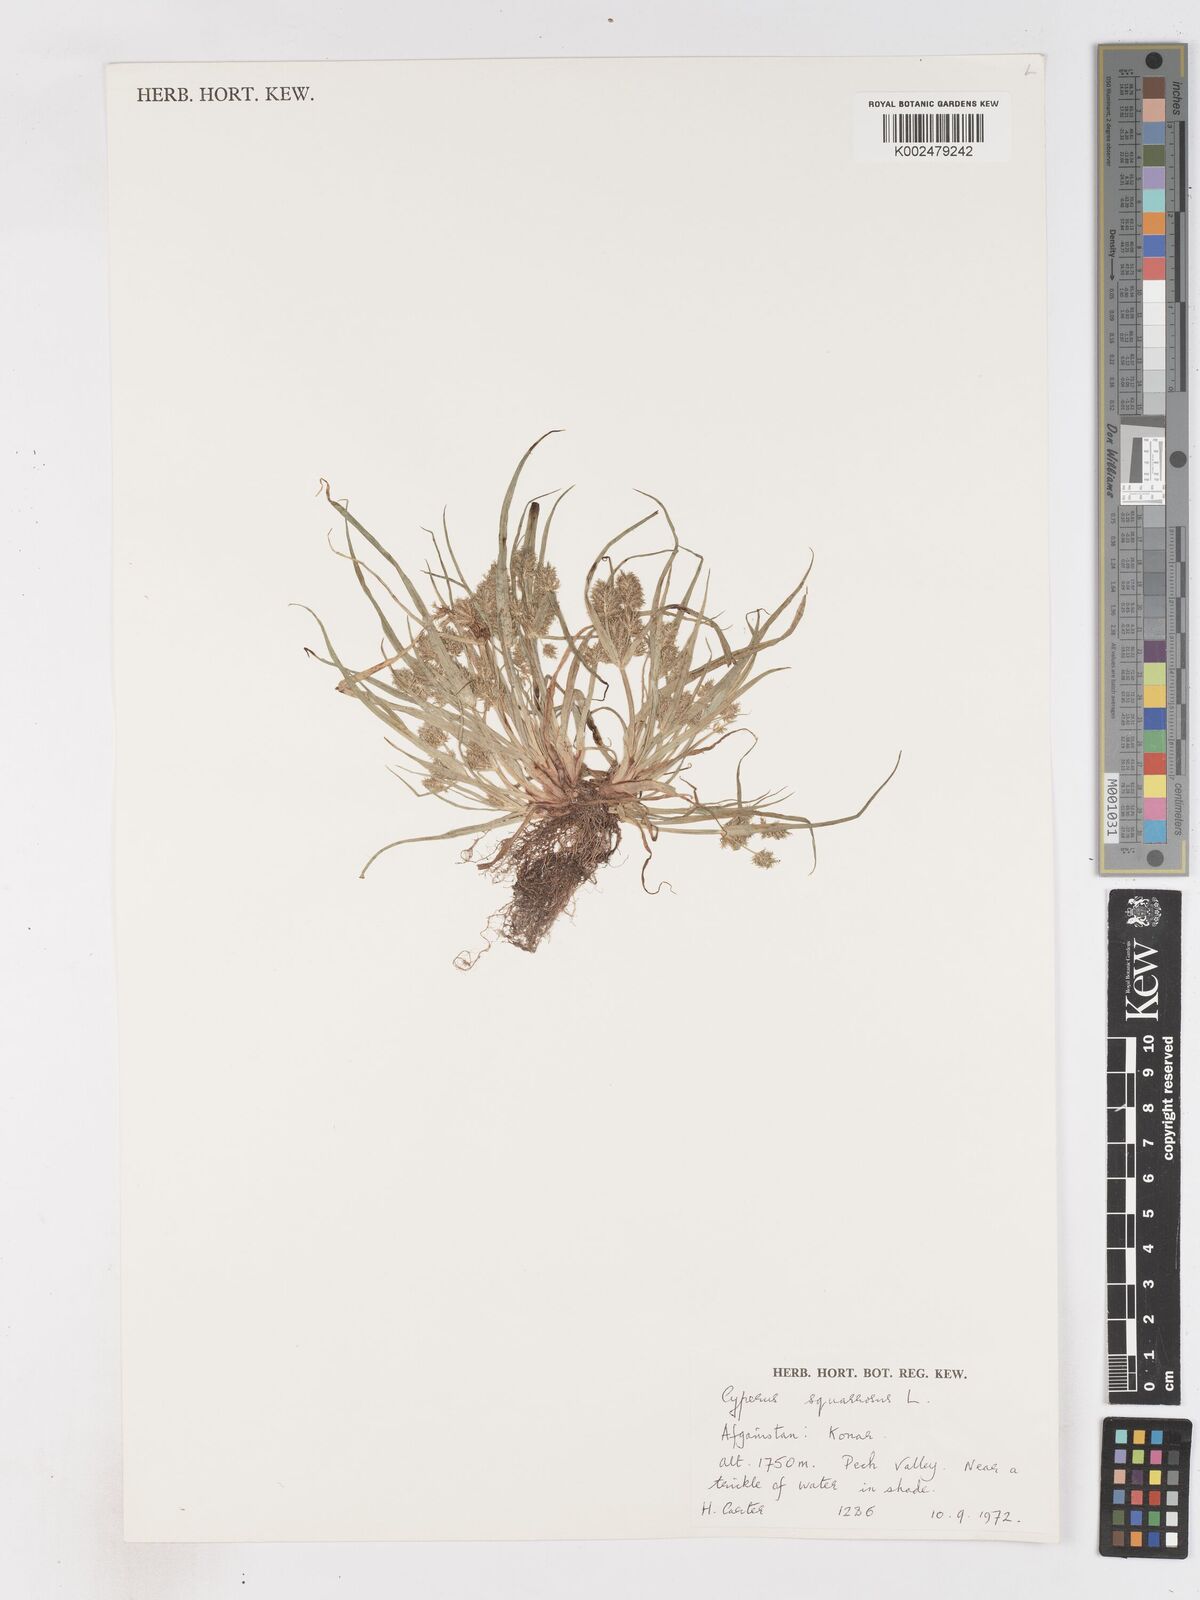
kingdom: Plantae
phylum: Tracheophyta
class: Liliopsida
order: Poales
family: Cyperaceae
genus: Cyperus
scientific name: Cyperus squarrosus
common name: Awned cyperus
